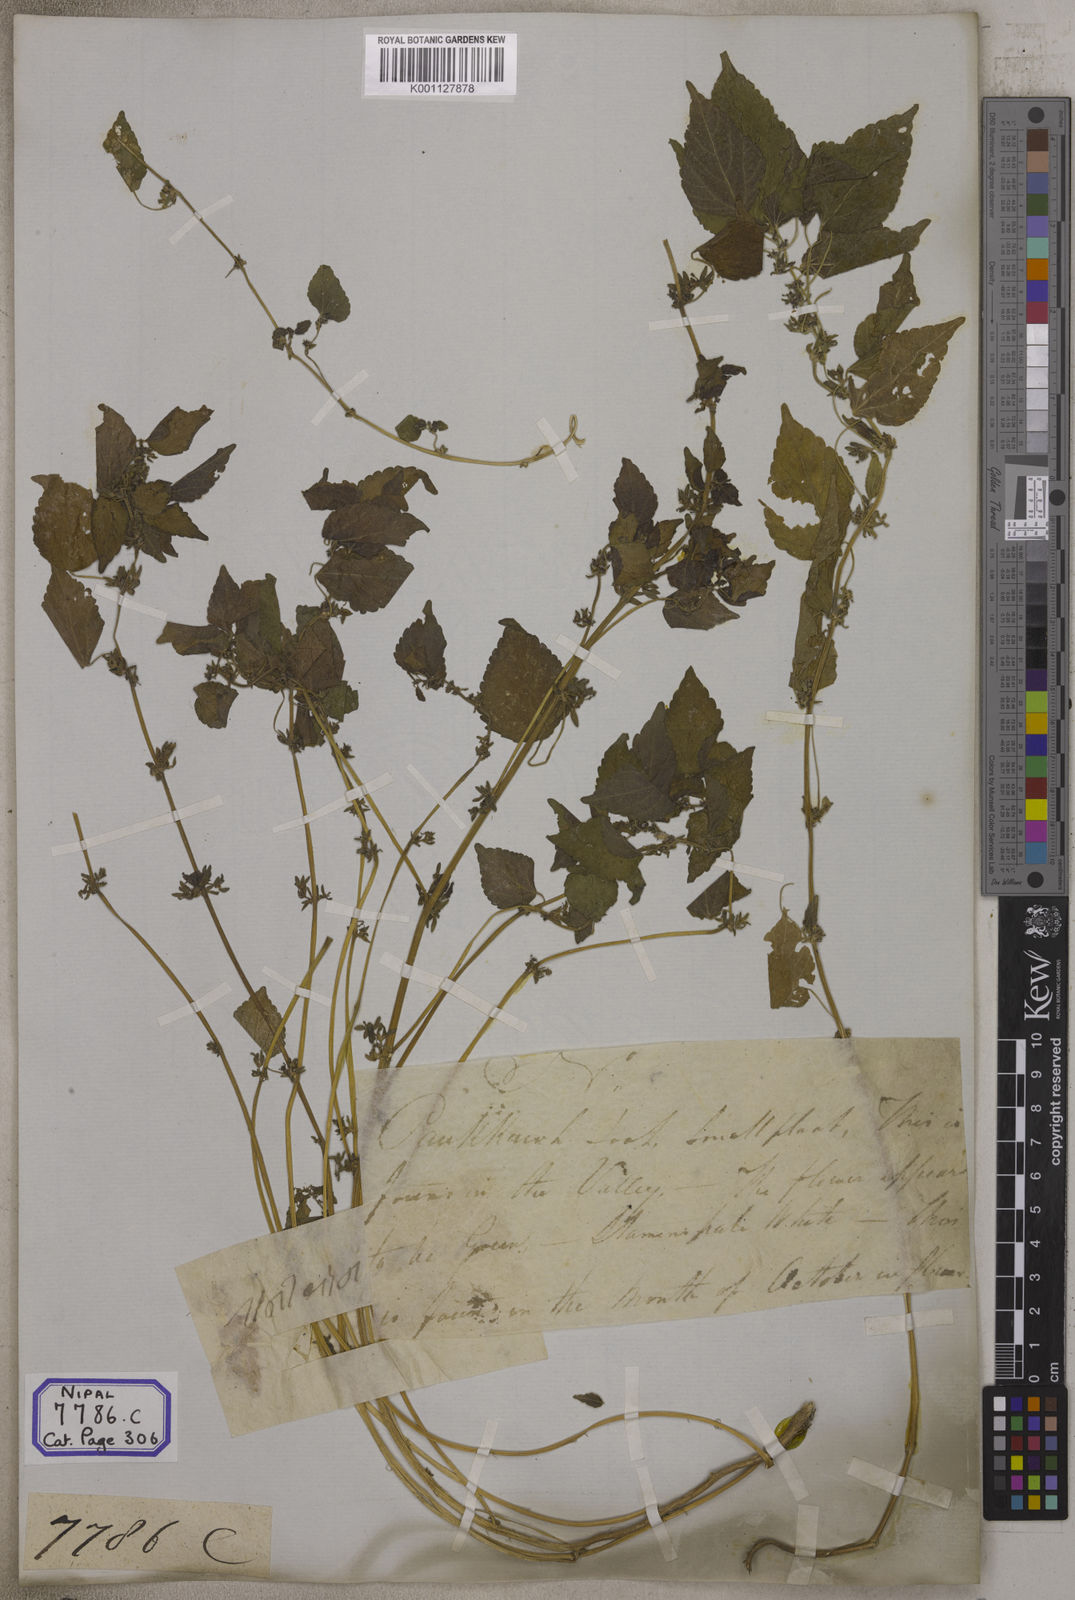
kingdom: Plantae
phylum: Tracheophyta
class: Magnoliopsida
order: Malpighiales
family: Euphorbiaceae
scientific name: Euphorbiaceae
